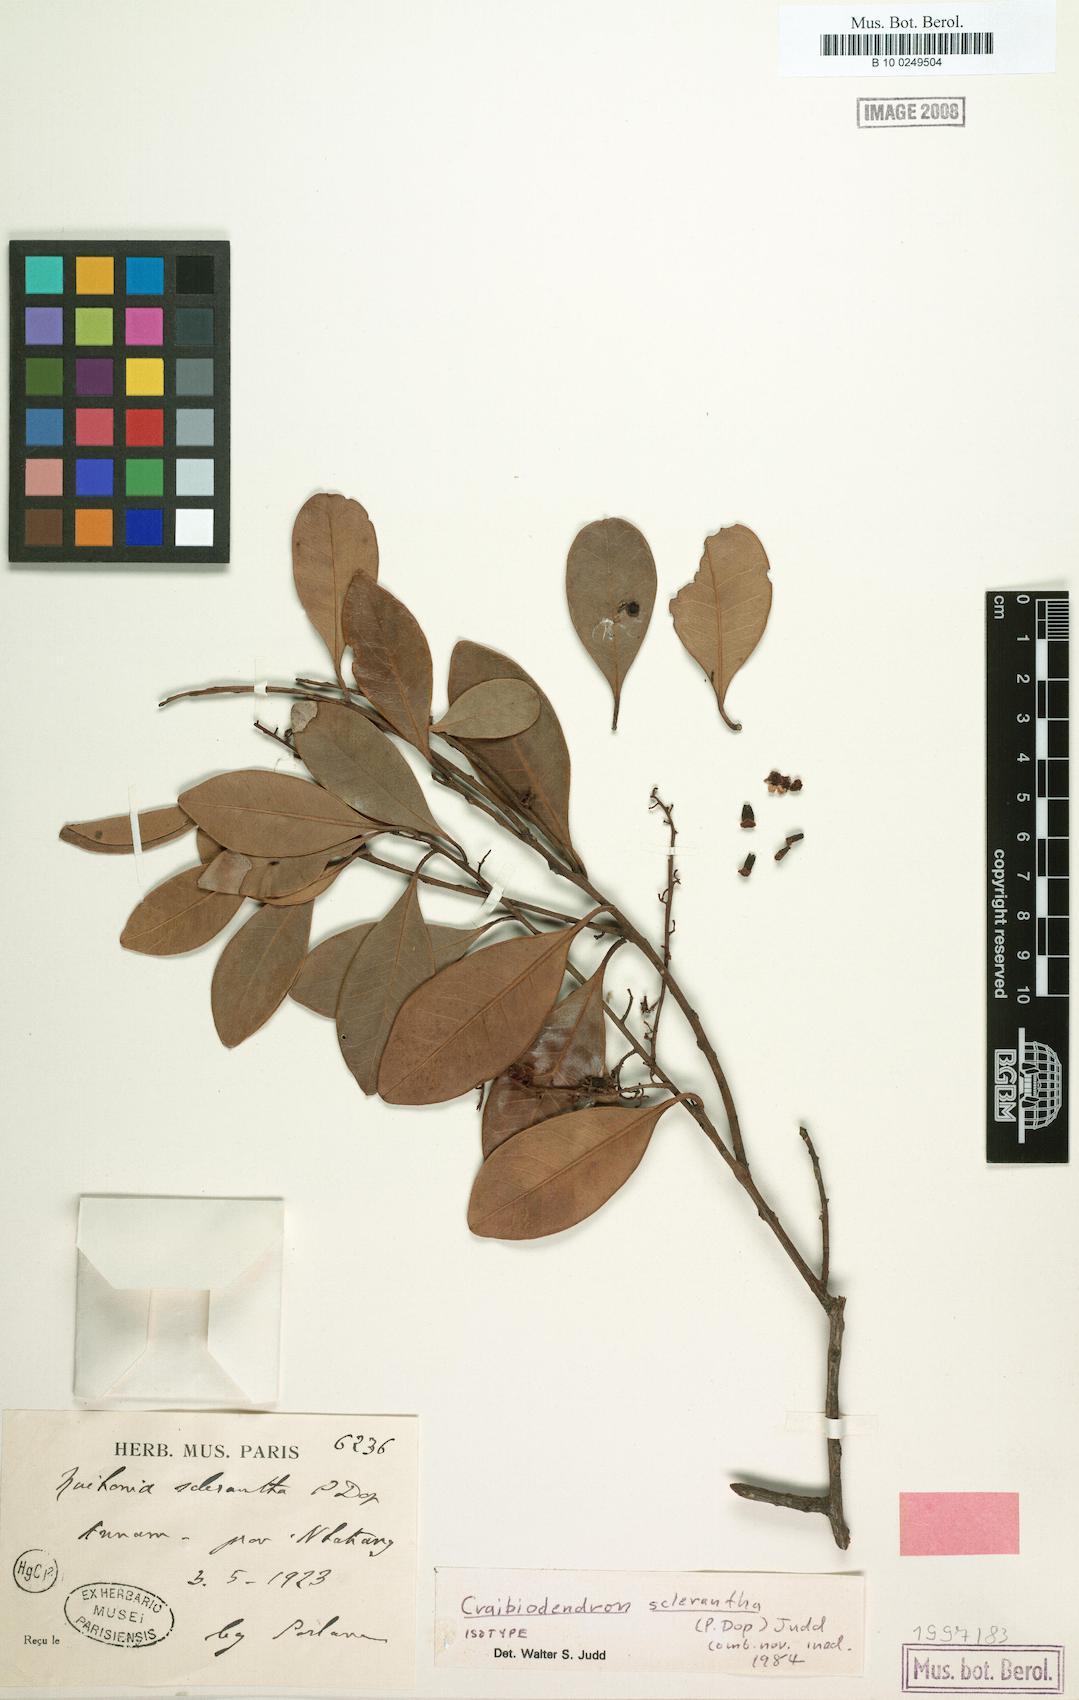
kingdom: Plantae
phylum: Tracheophyta
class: Magnoliopsida
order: Ericales
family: Ericaceae
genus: Craibiodendron
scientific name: Craibiodendron scleranthum
